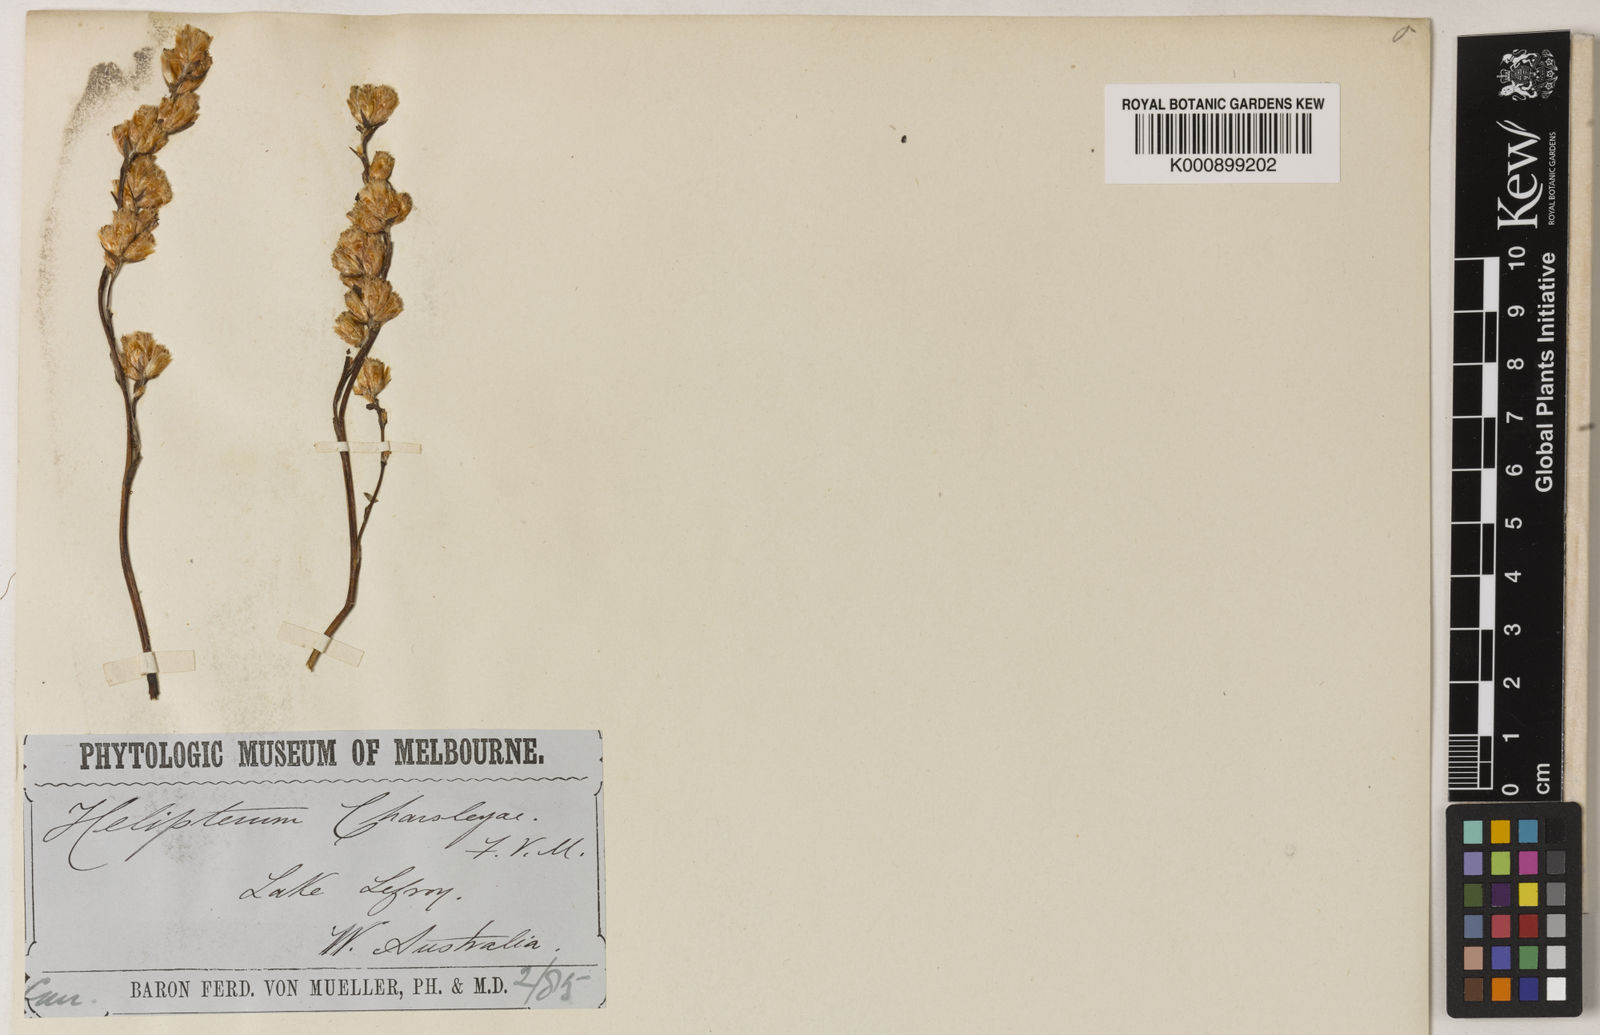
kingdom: Plantae
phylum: Tracheophyta
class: Magnoliopsida
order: Asterales
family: Asteraceae
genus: Rhodanthe
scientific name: Rhodanthe charsleyae
